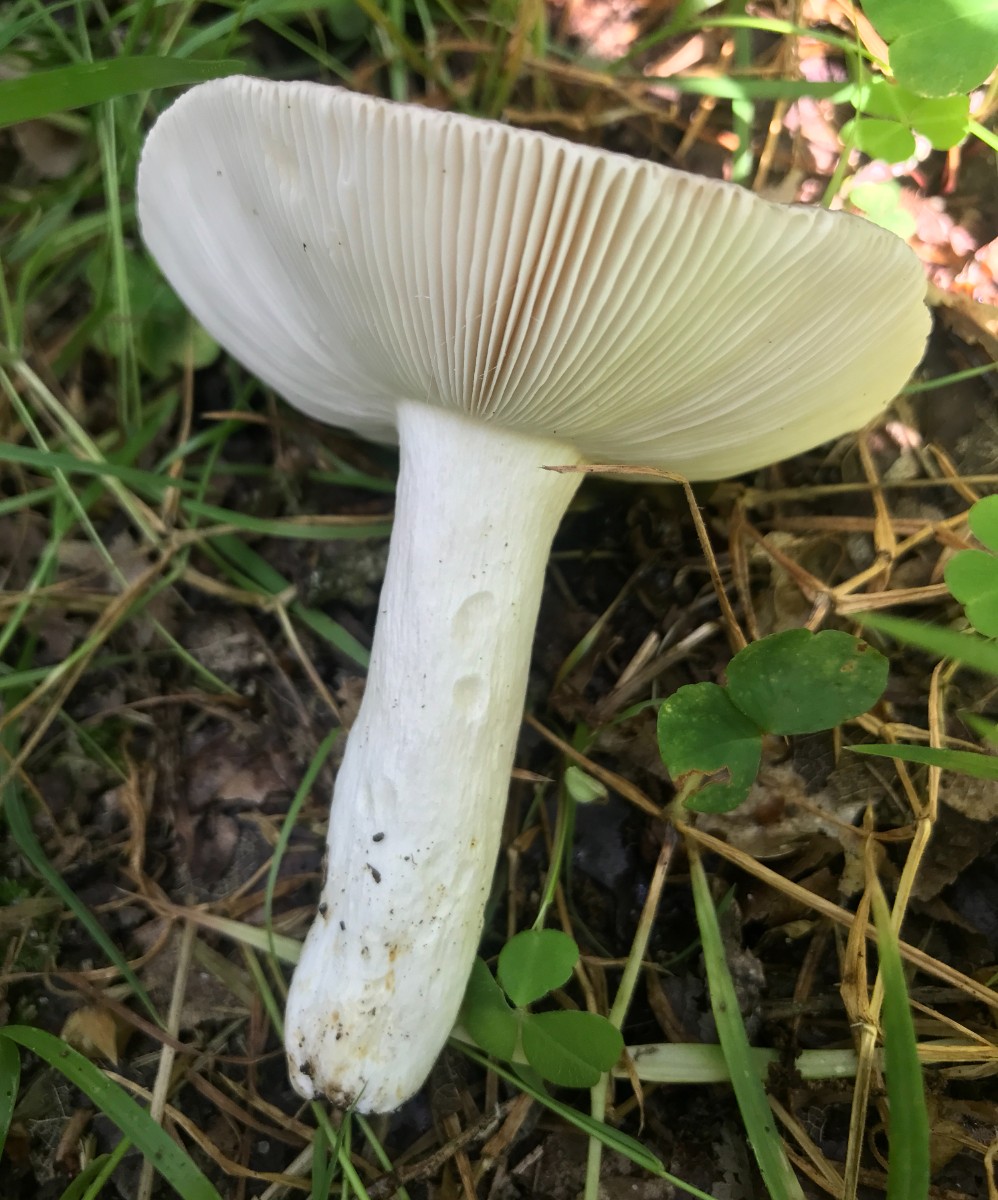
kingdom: Fungi
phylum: Basidiomycota
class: Agaricomycetes
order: Russulales
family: Russulaceae
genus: Russula
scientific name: Russula cyanoxantha
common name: broget skørhat
